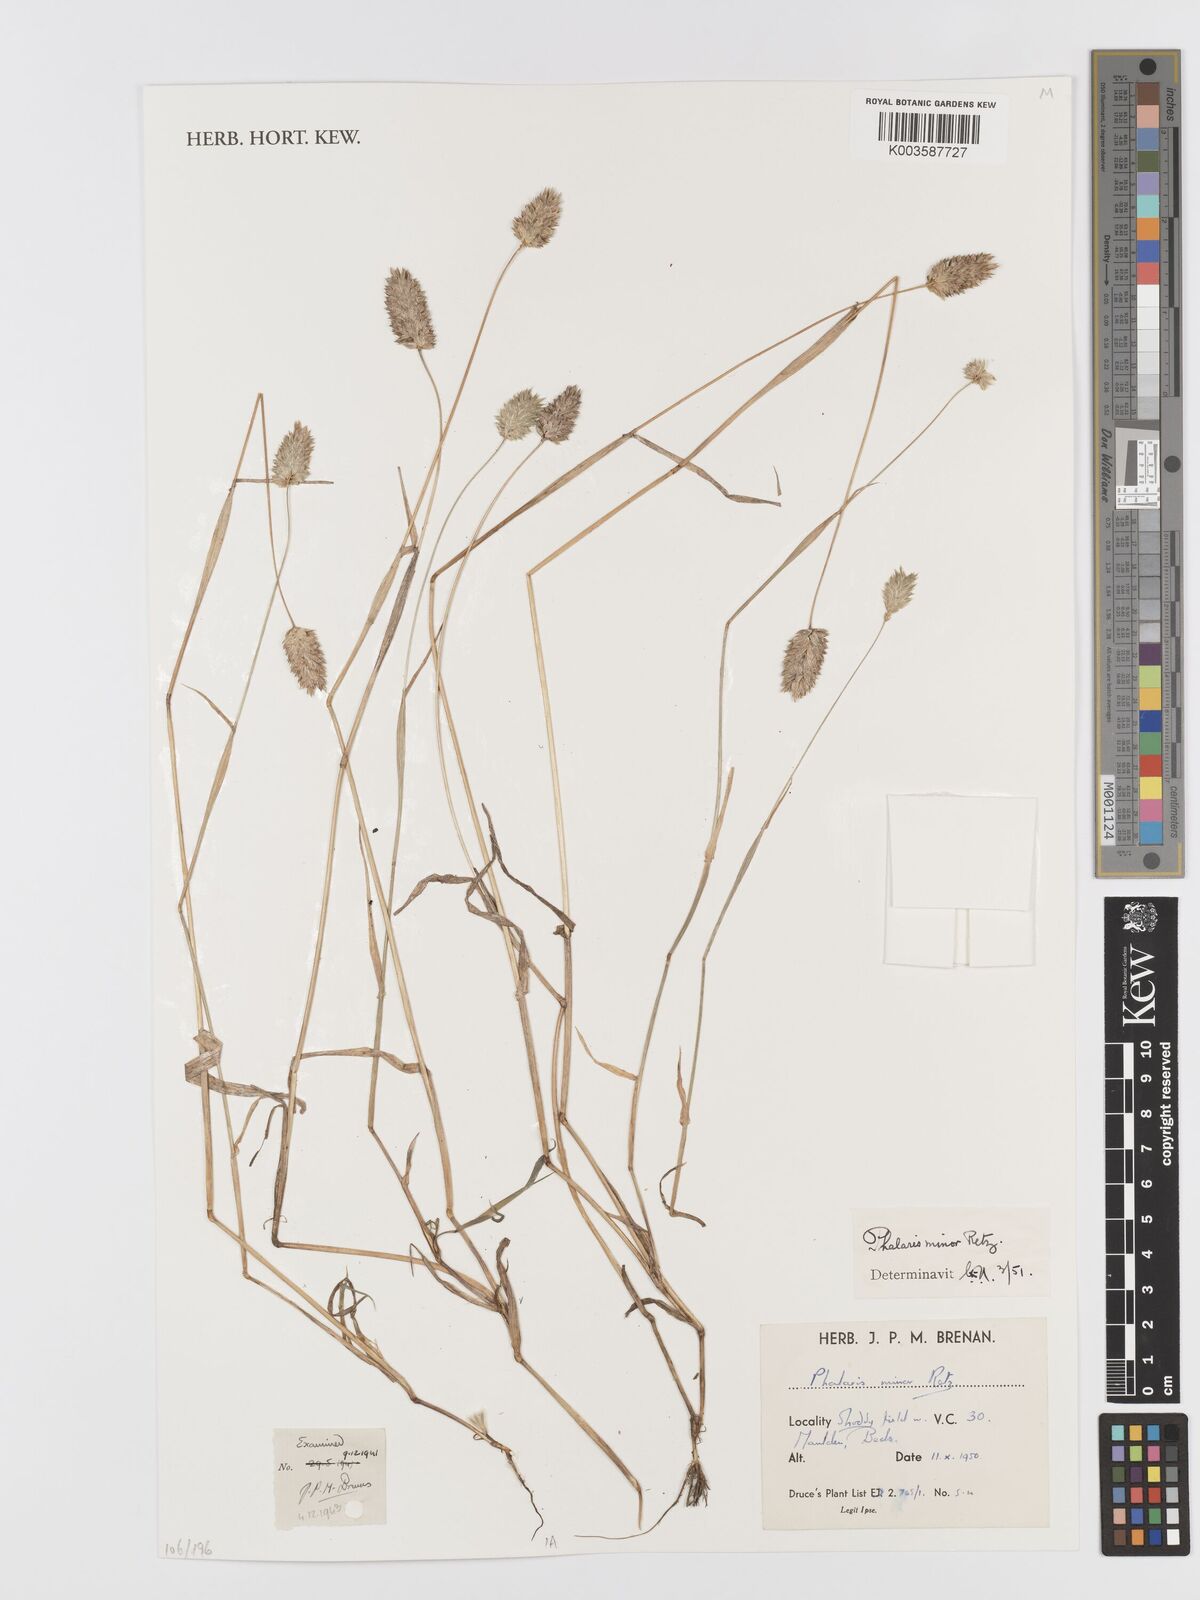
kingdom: Plantae
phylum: Tracheophyta
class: Liliopsida
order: Poales
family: Poaceae
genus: Phalaris
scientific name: Phalaris minor
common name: Littleseed canarygrass
